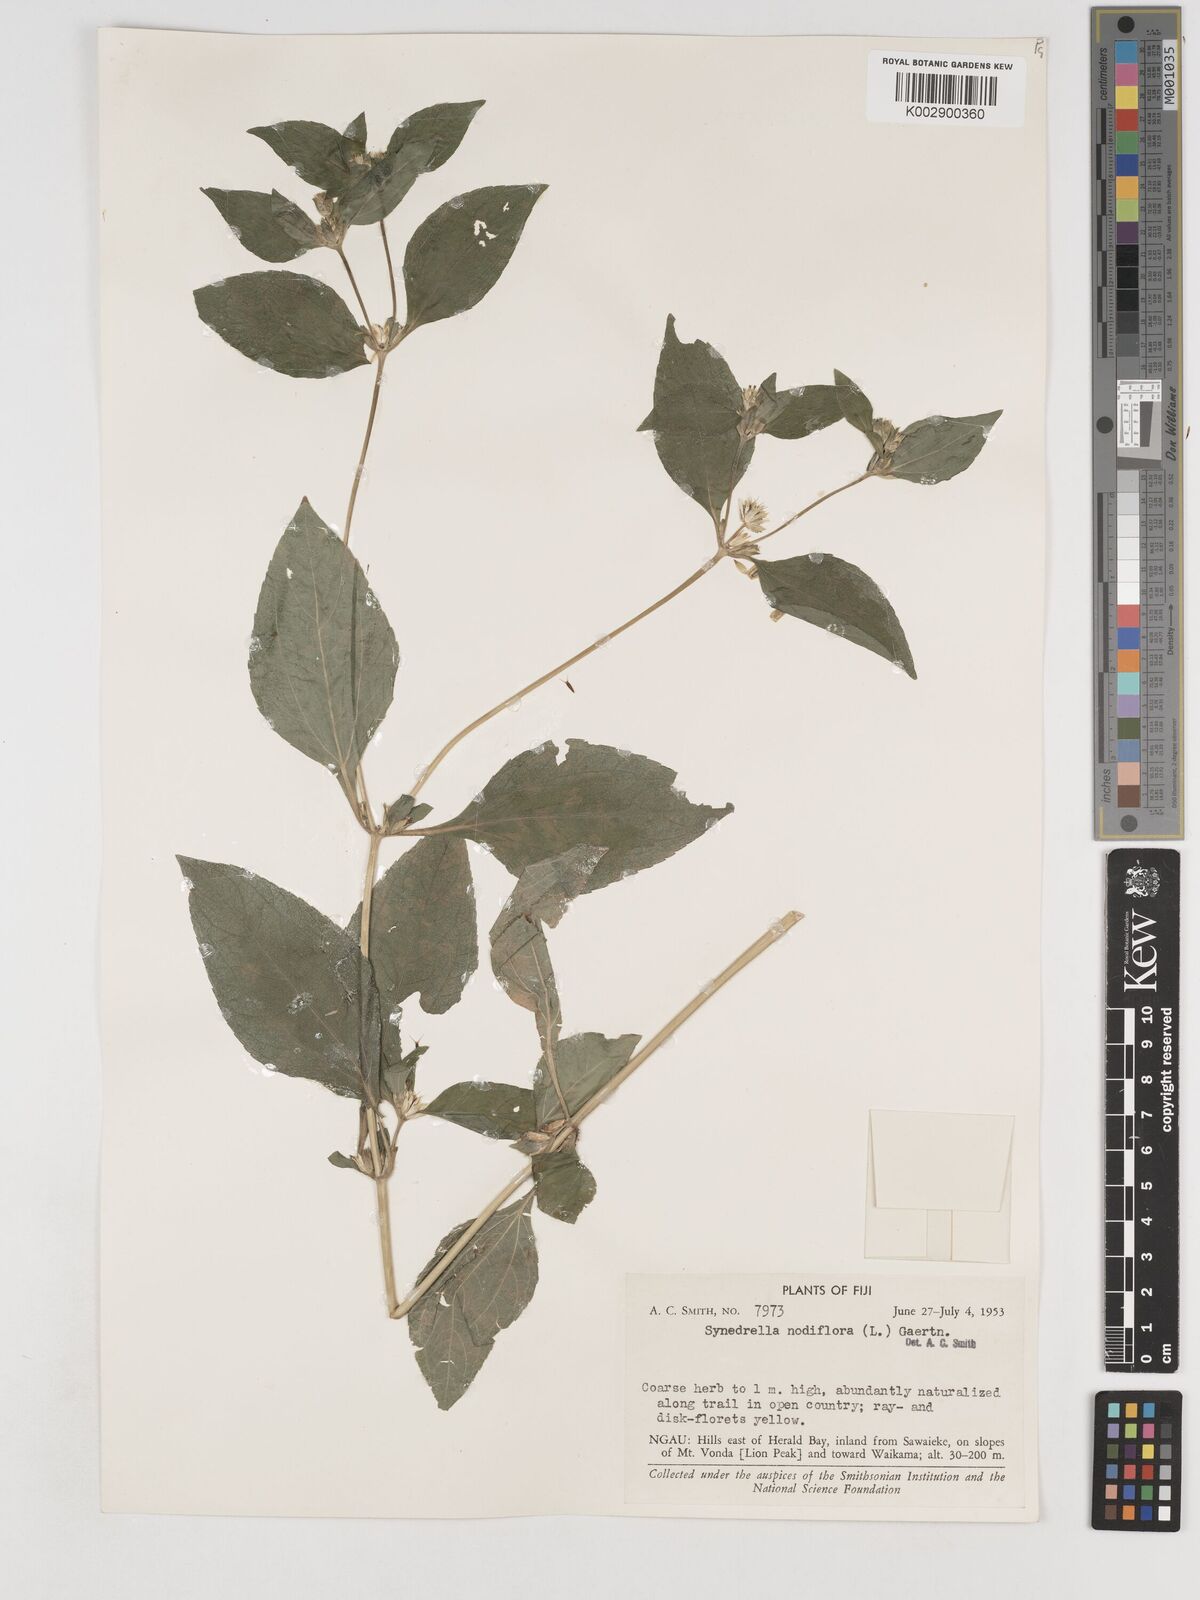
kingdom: Plantae
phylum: Tracheophyta
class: Magnoliopsida
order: Asterales
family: Asteraceae
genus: Synedrella
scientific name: Synedrella nodiflora
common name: Nodeweed
